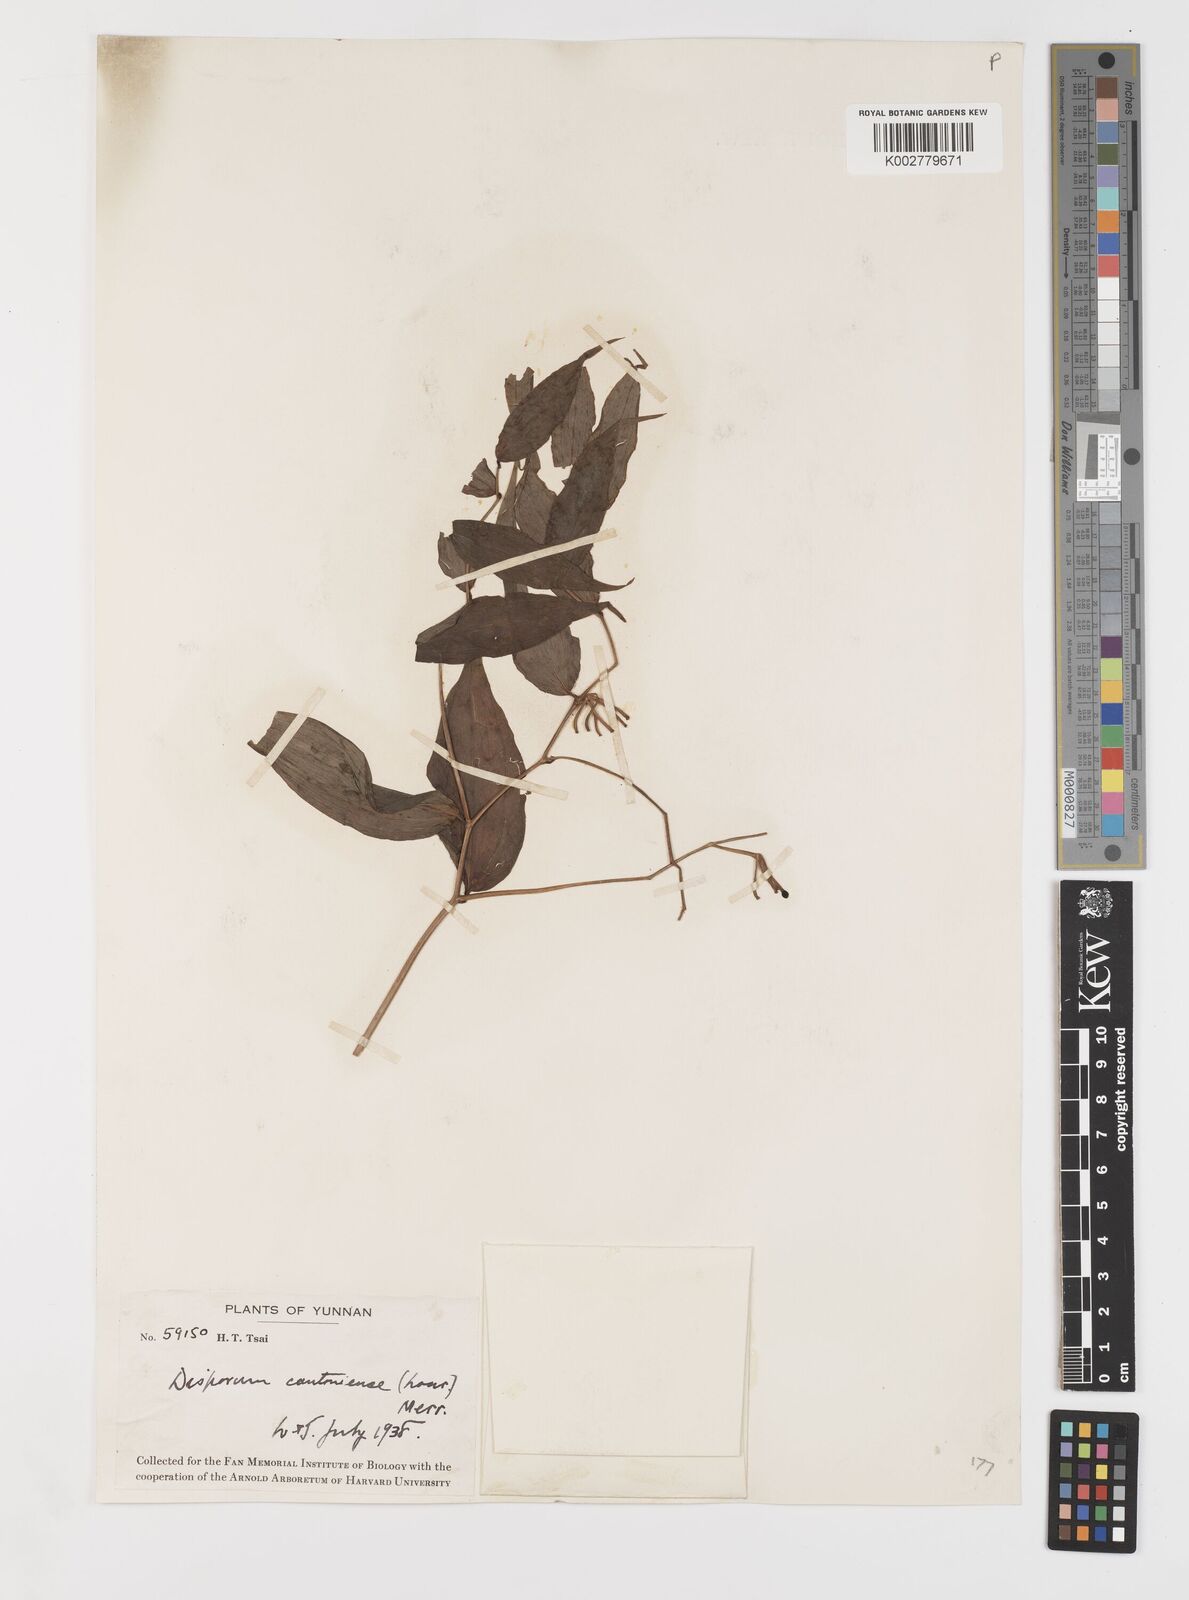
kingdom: Plantae
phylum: Tracheophyta
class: Liliopsida
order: Liliales
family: Colchicaceae
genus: Disporum
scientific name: Disporum cantoniense
